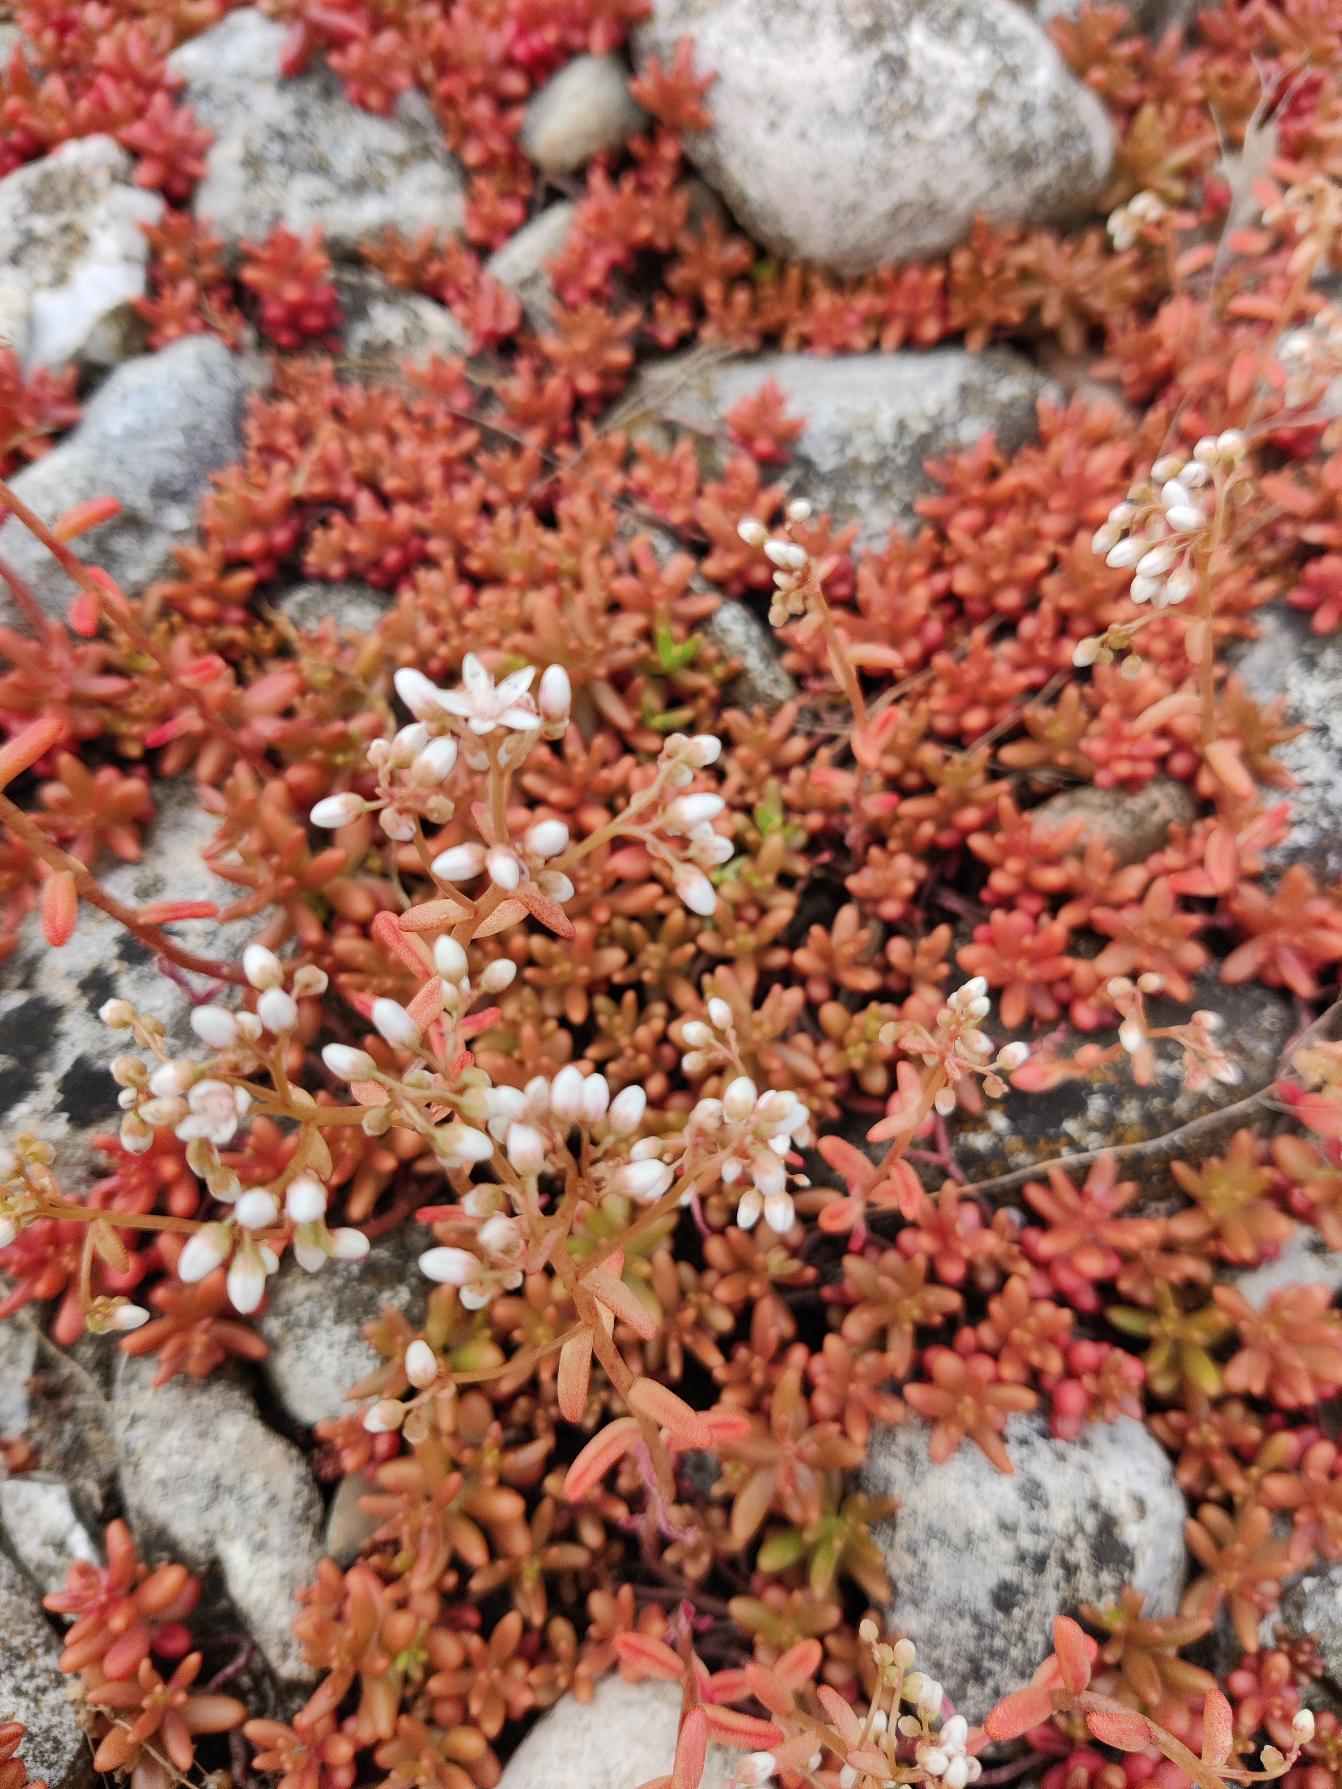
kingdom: Plantae
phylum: Tracheophyta
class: Magnoliopsida
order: Saxifragales
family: Crassulaceae
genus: Sedum
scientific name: Sedum album
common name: Hvid stenurt
